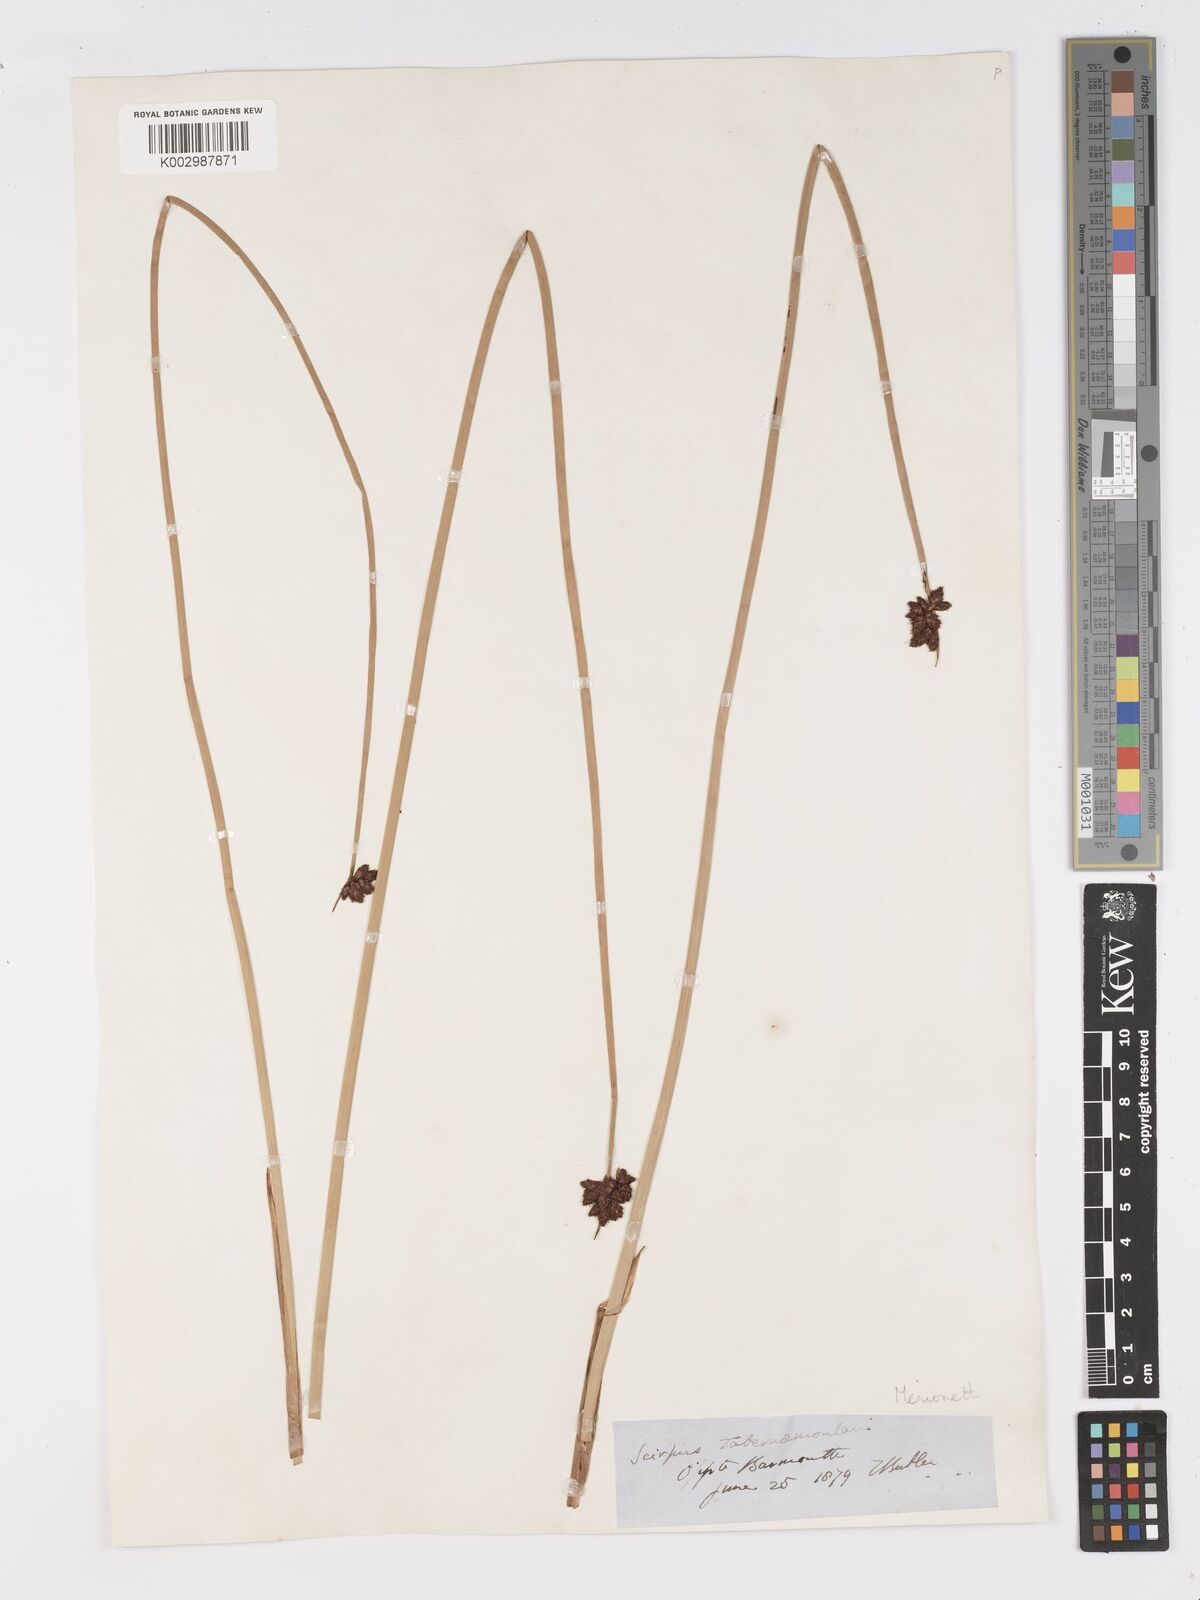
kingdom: Plantae
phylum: Tracheophyta
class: Liliopsida
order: Poales
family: Cyperaceae
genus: Schoenoplectus
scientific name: Schoenoplectus tabernaemontani
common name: Grey club-rush
